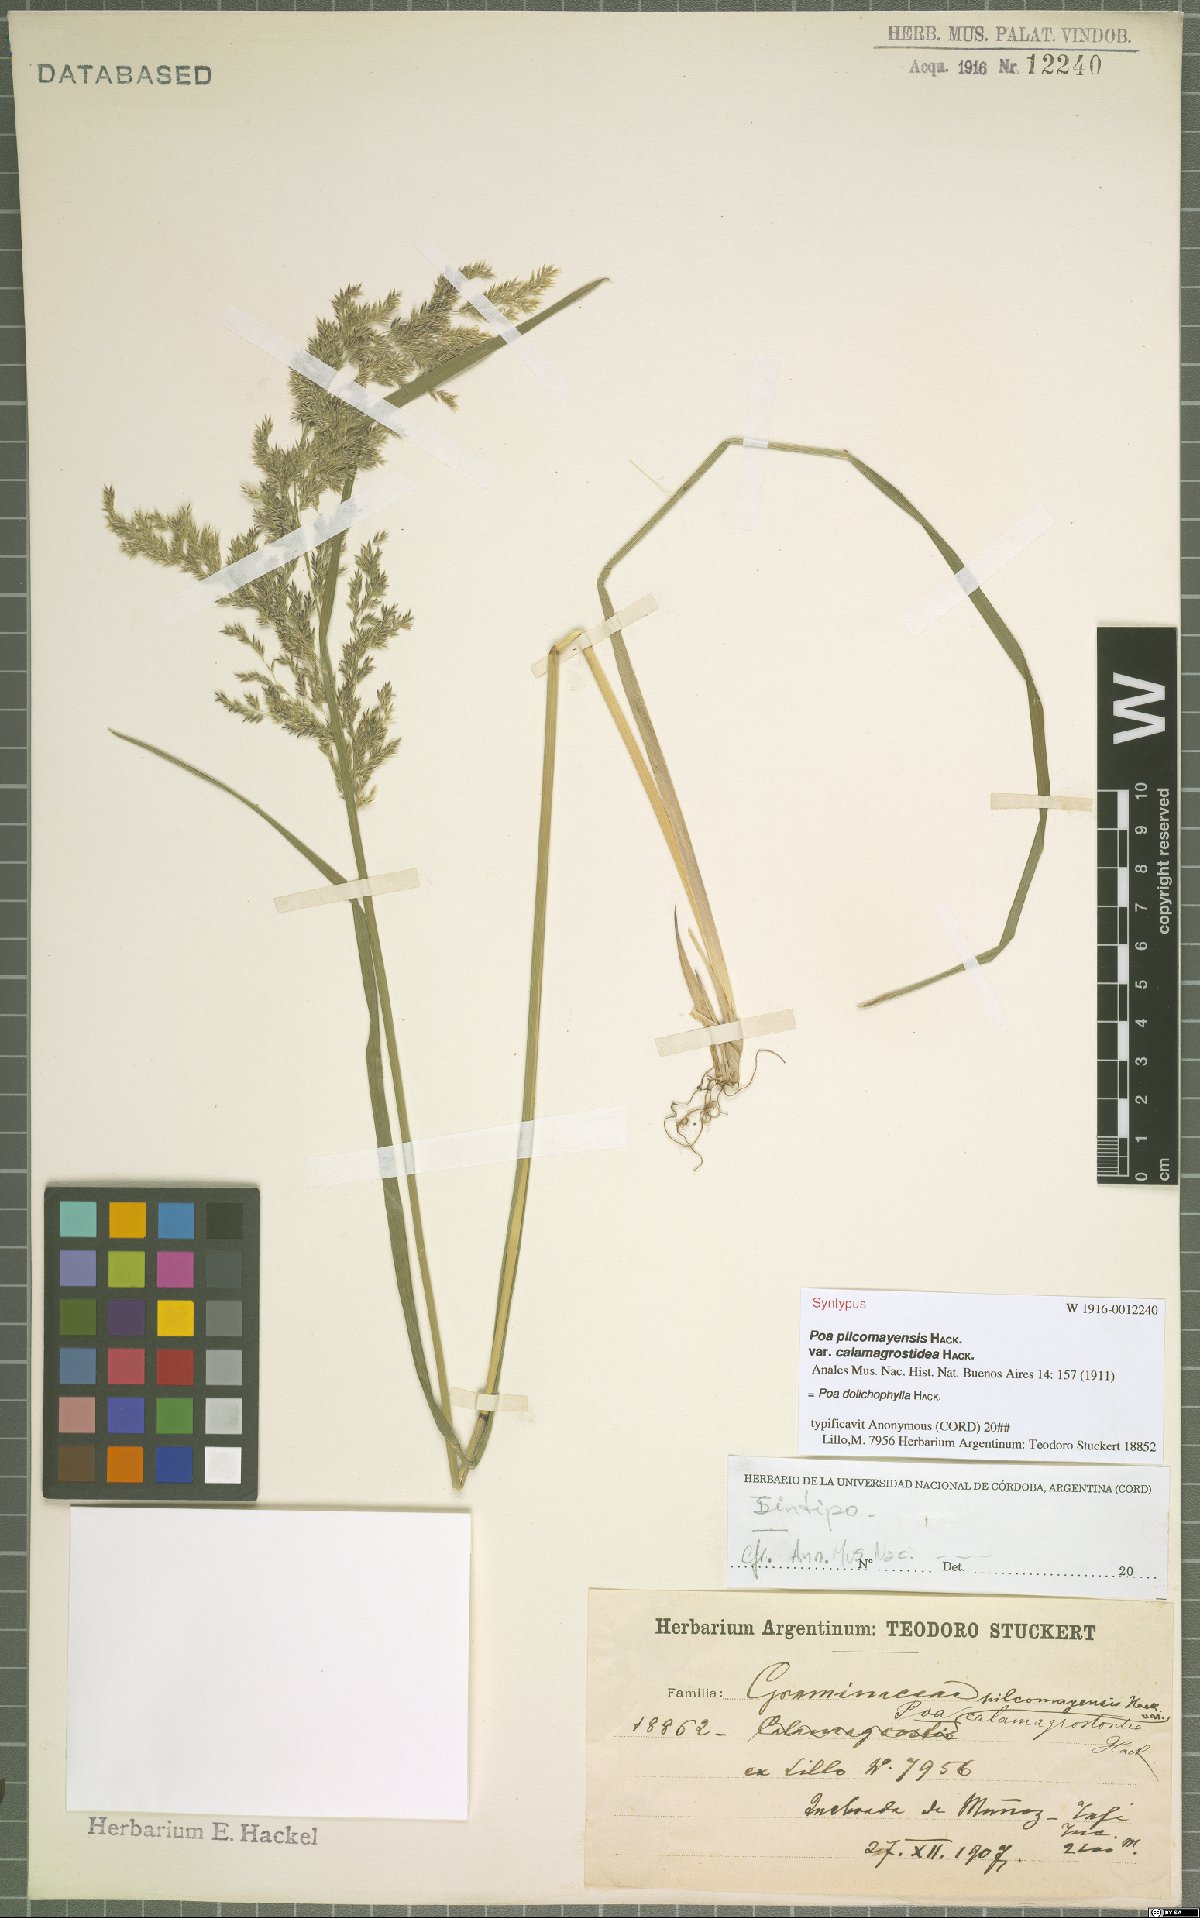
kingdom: Plantae
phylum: Tracheophyta
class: Liliopsida
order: Poales
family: Poaceae
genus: Poa
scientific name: Poa dolichophylla
